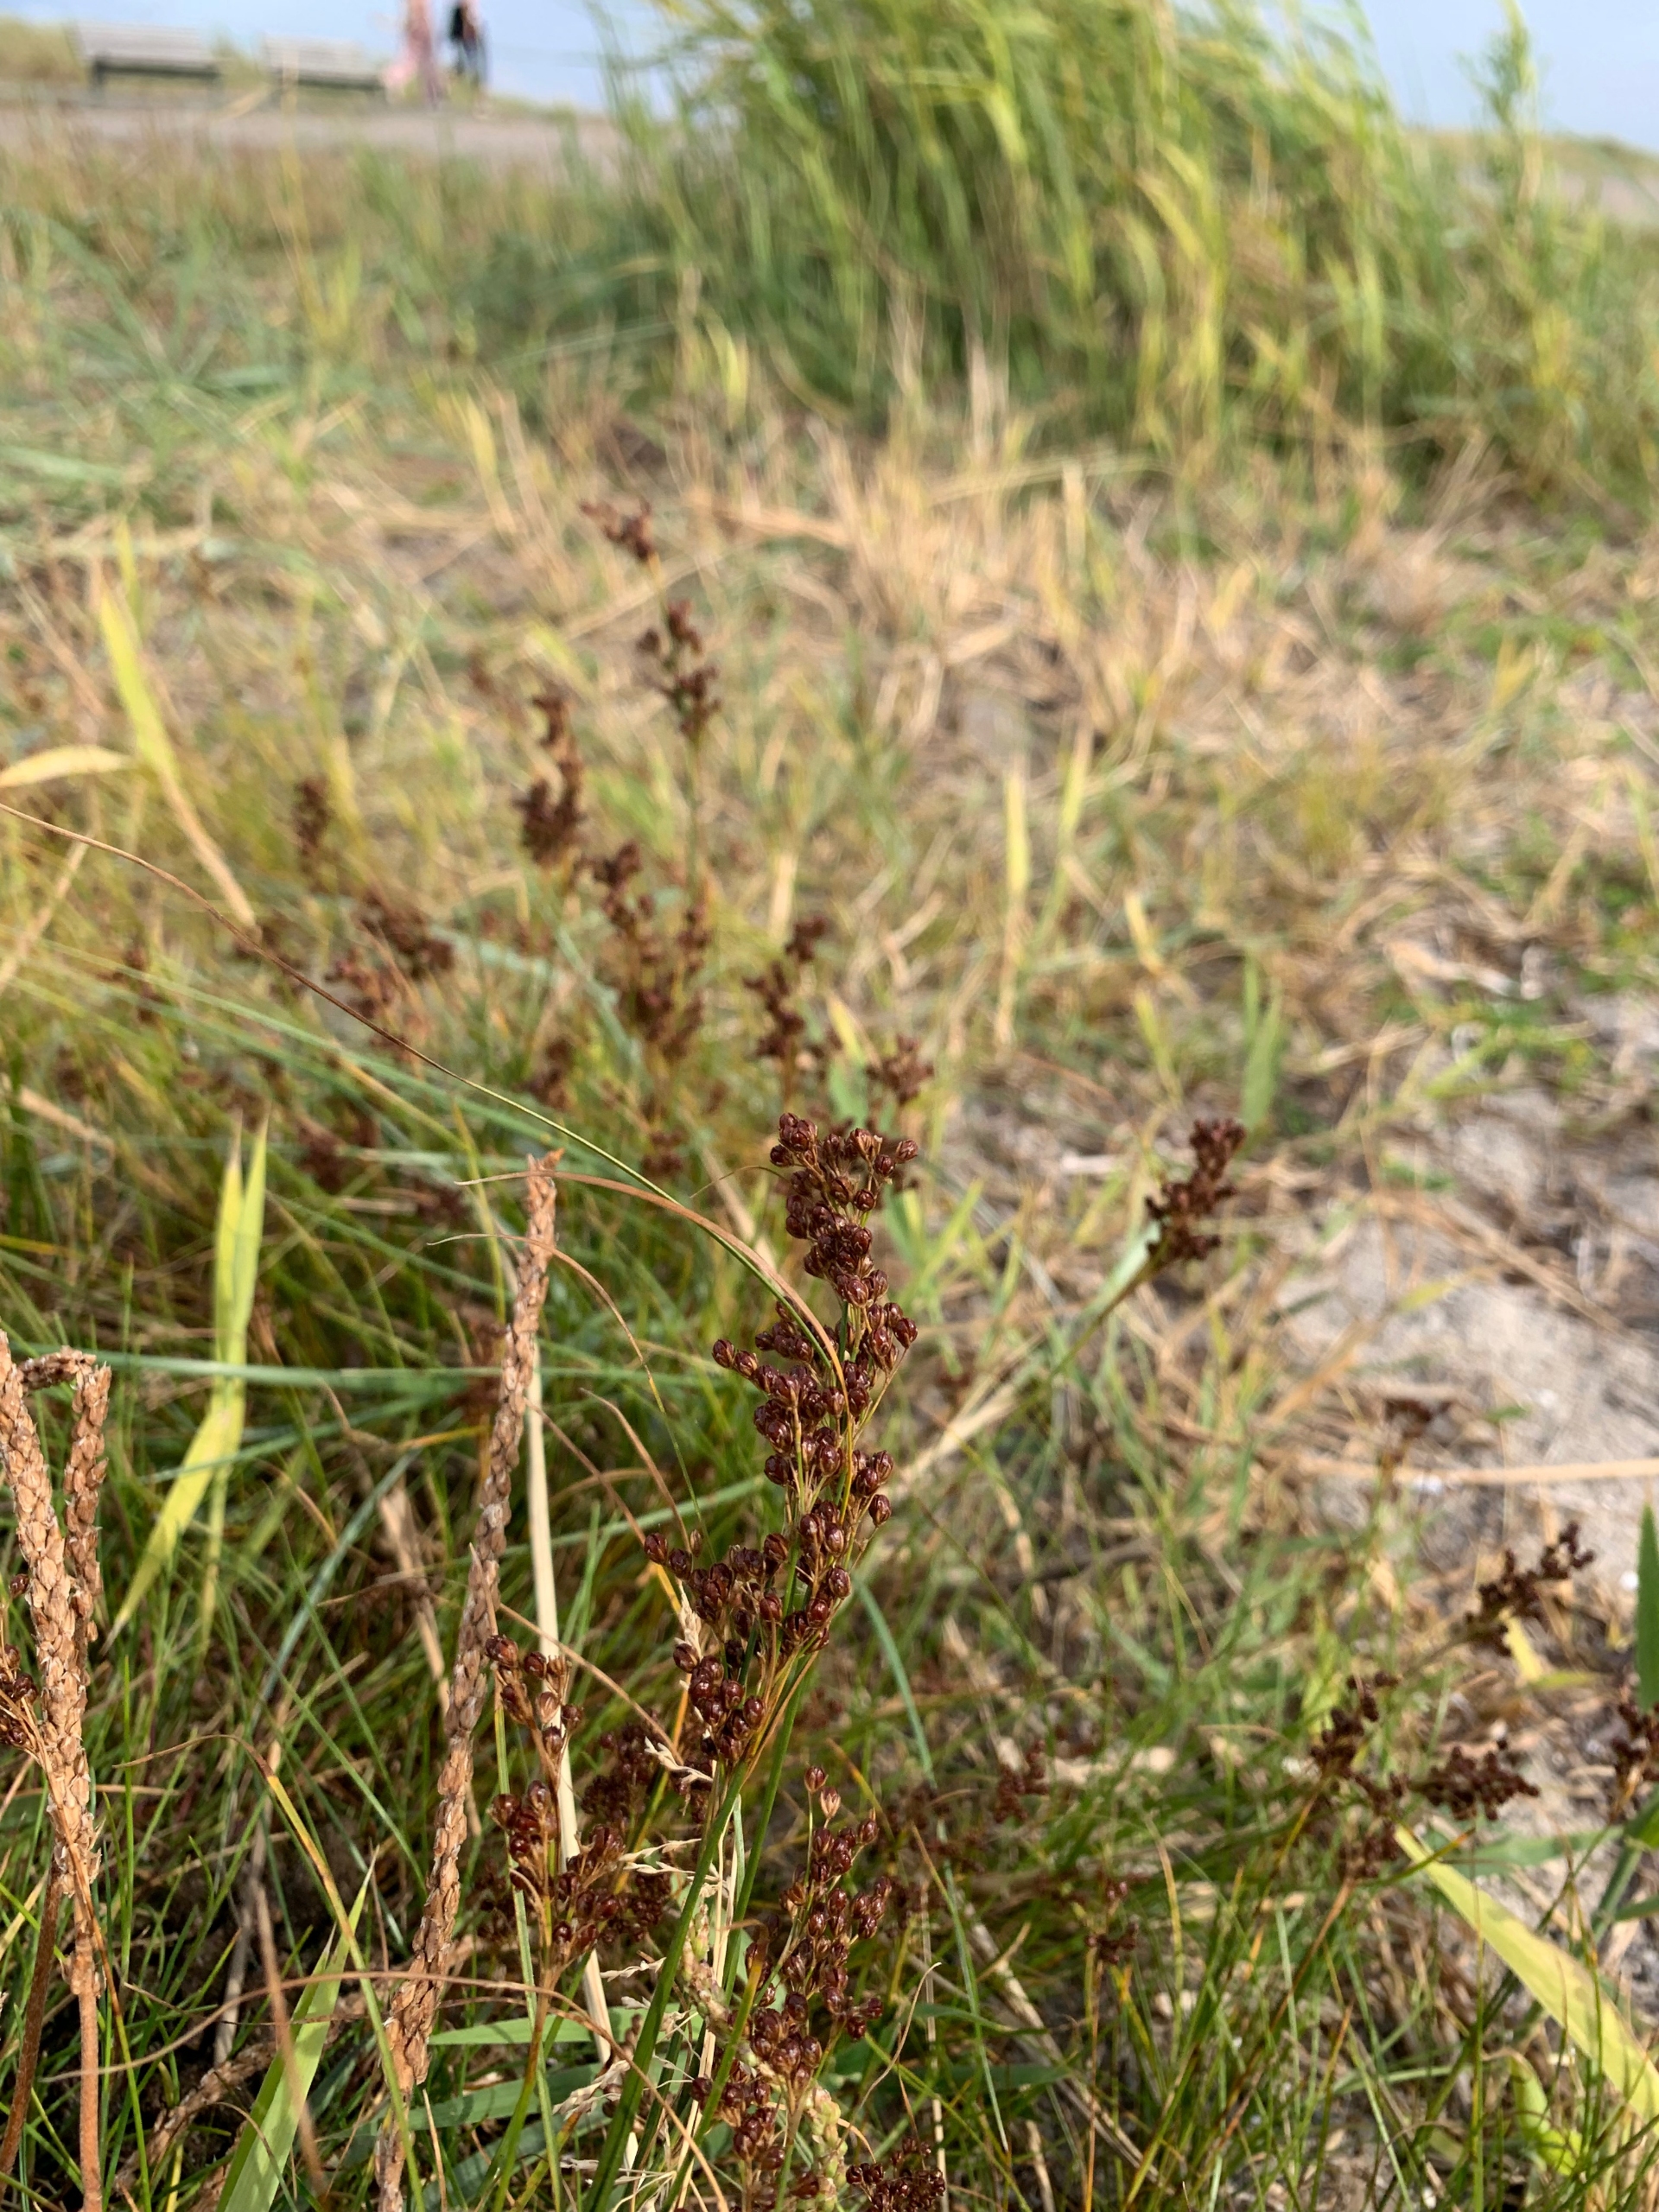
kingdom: Plantae
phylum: Tracheophyta
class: Liliopsida
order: Poales
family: Juncaceae
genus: Juncus
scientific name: Juncus gerardi
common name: Harril
